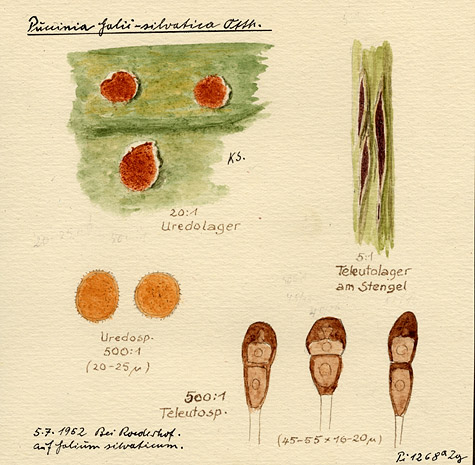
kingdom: Plantae
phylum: Tracheophyta
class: Magnoliopsida
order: Gentianales
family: Rubiaceae
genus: Galium
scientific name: Galium sylvaticum
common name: Wood bedstraw
